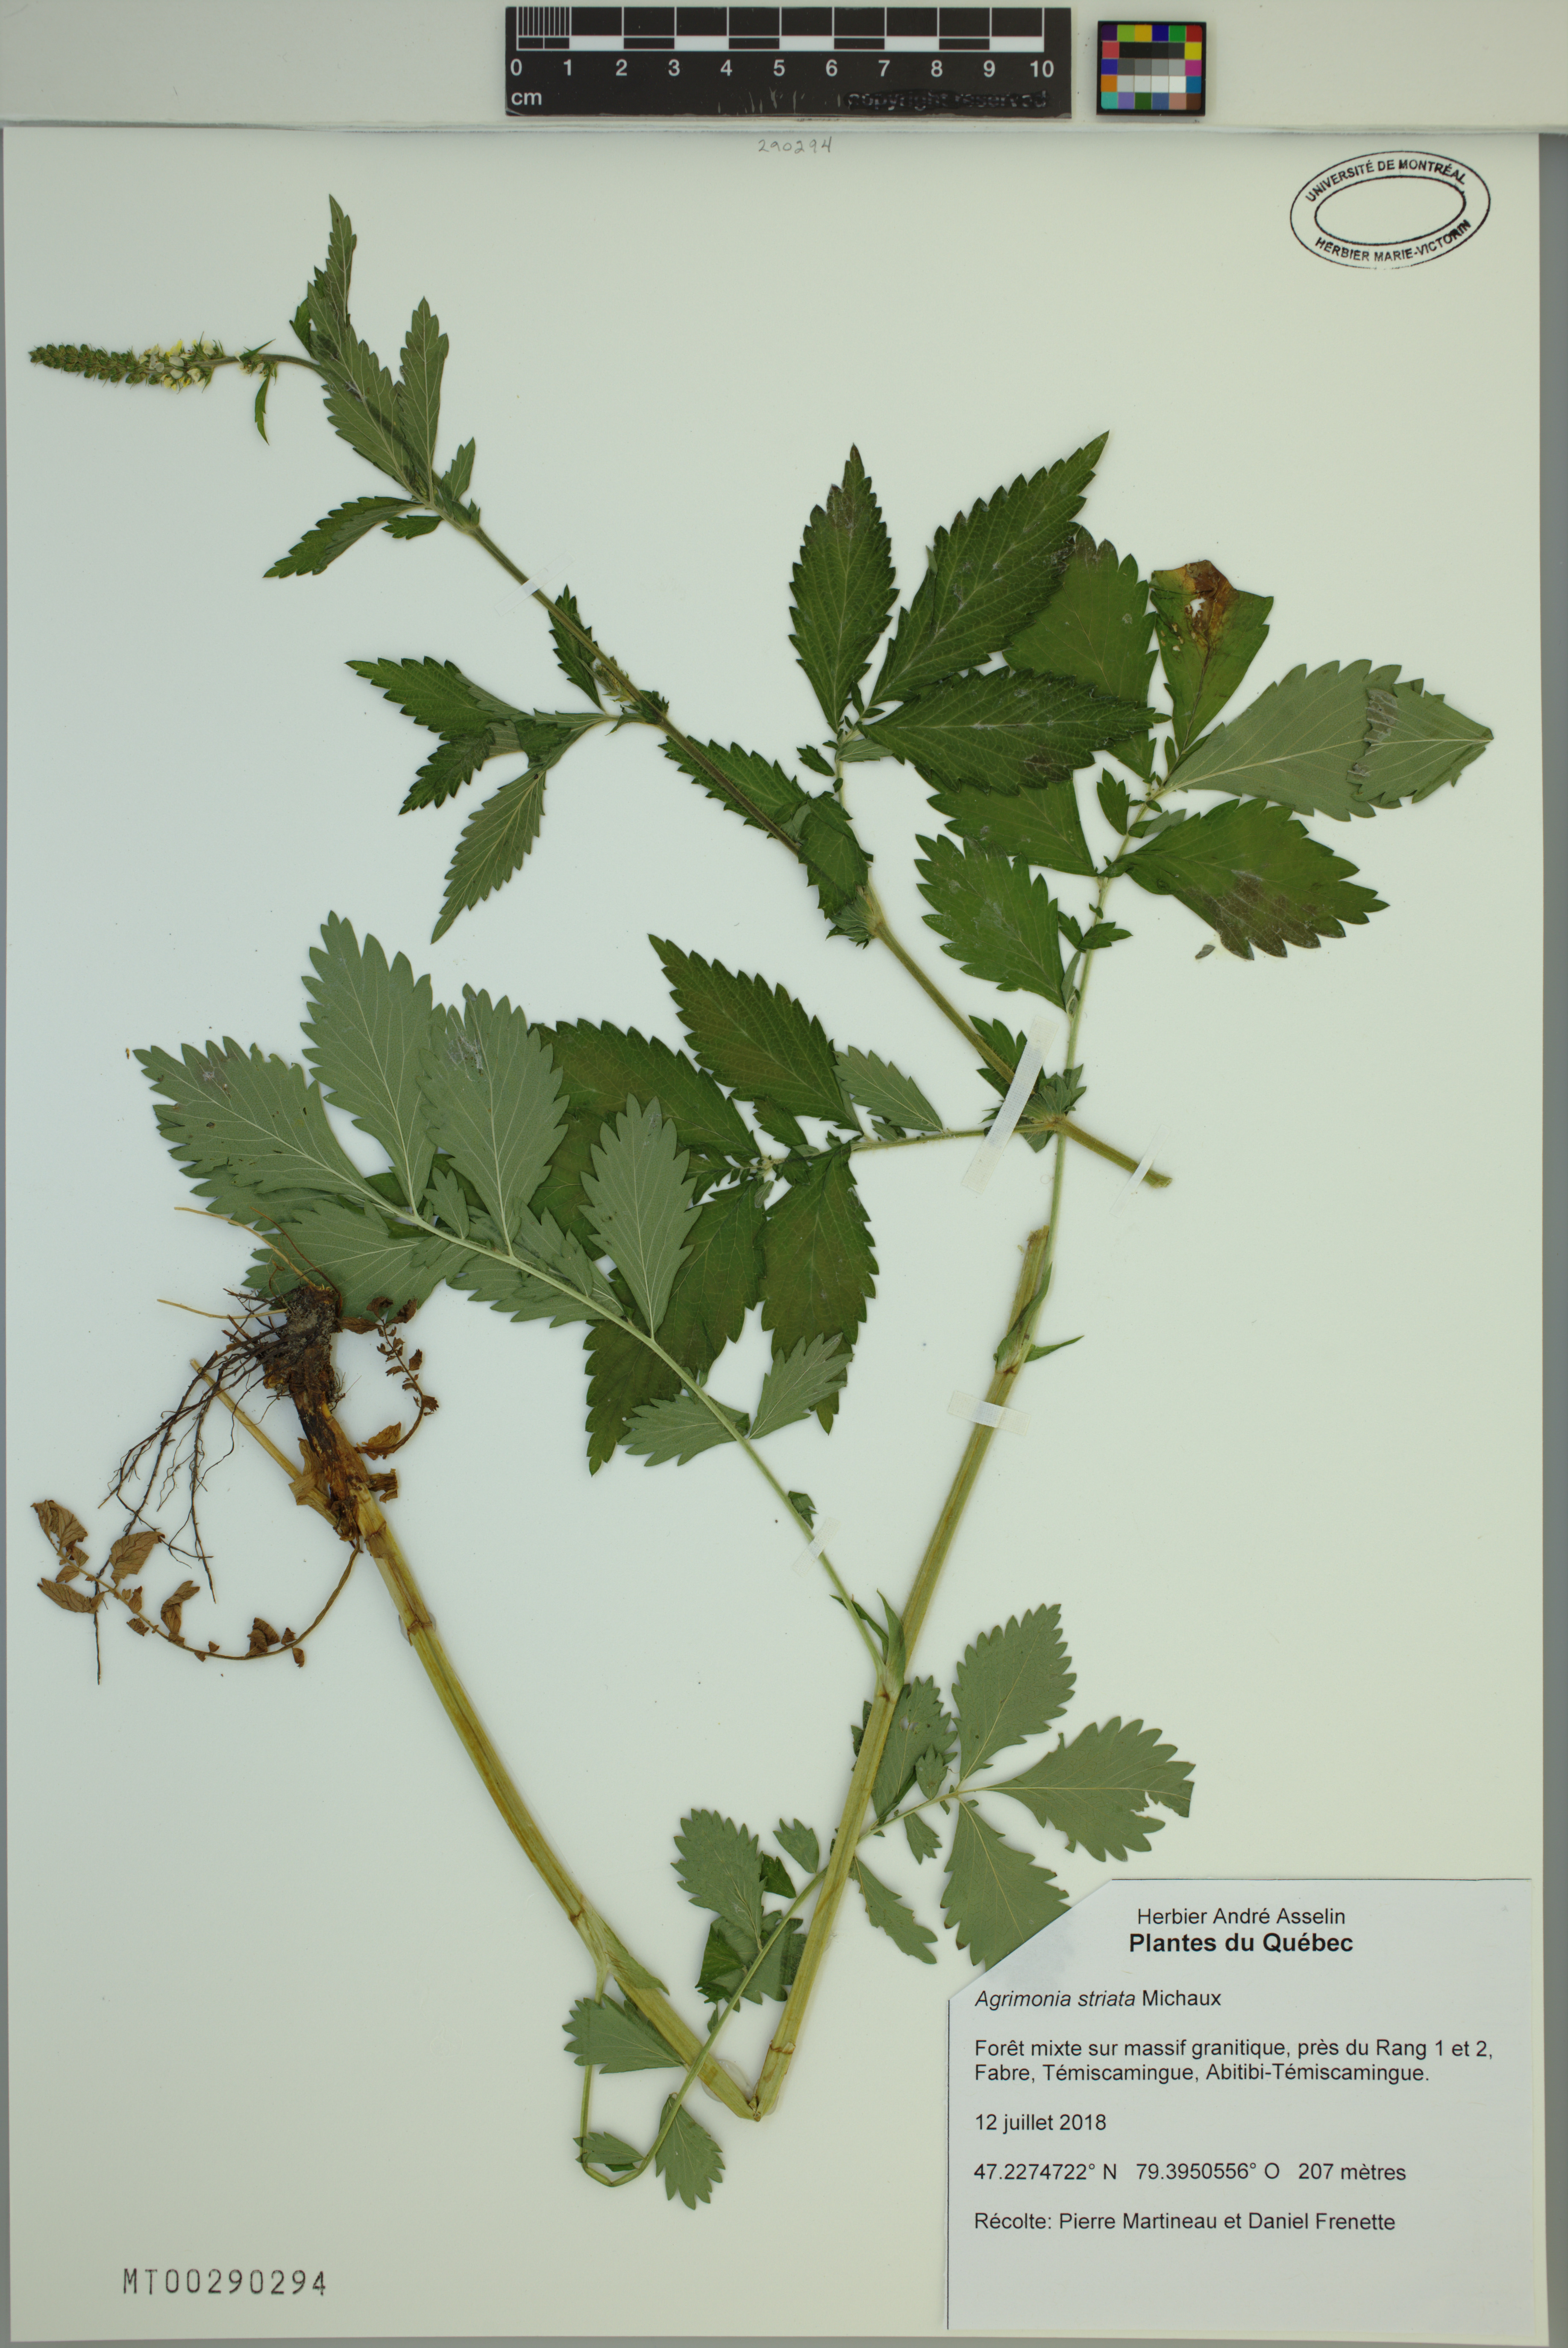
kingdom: Plantae
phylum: Tracheophyta
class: Magnoliopsida
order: Rosales
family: Rosaceae
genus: Agrimonia
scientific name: Agrimonia striata
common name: Britton's agrimony
